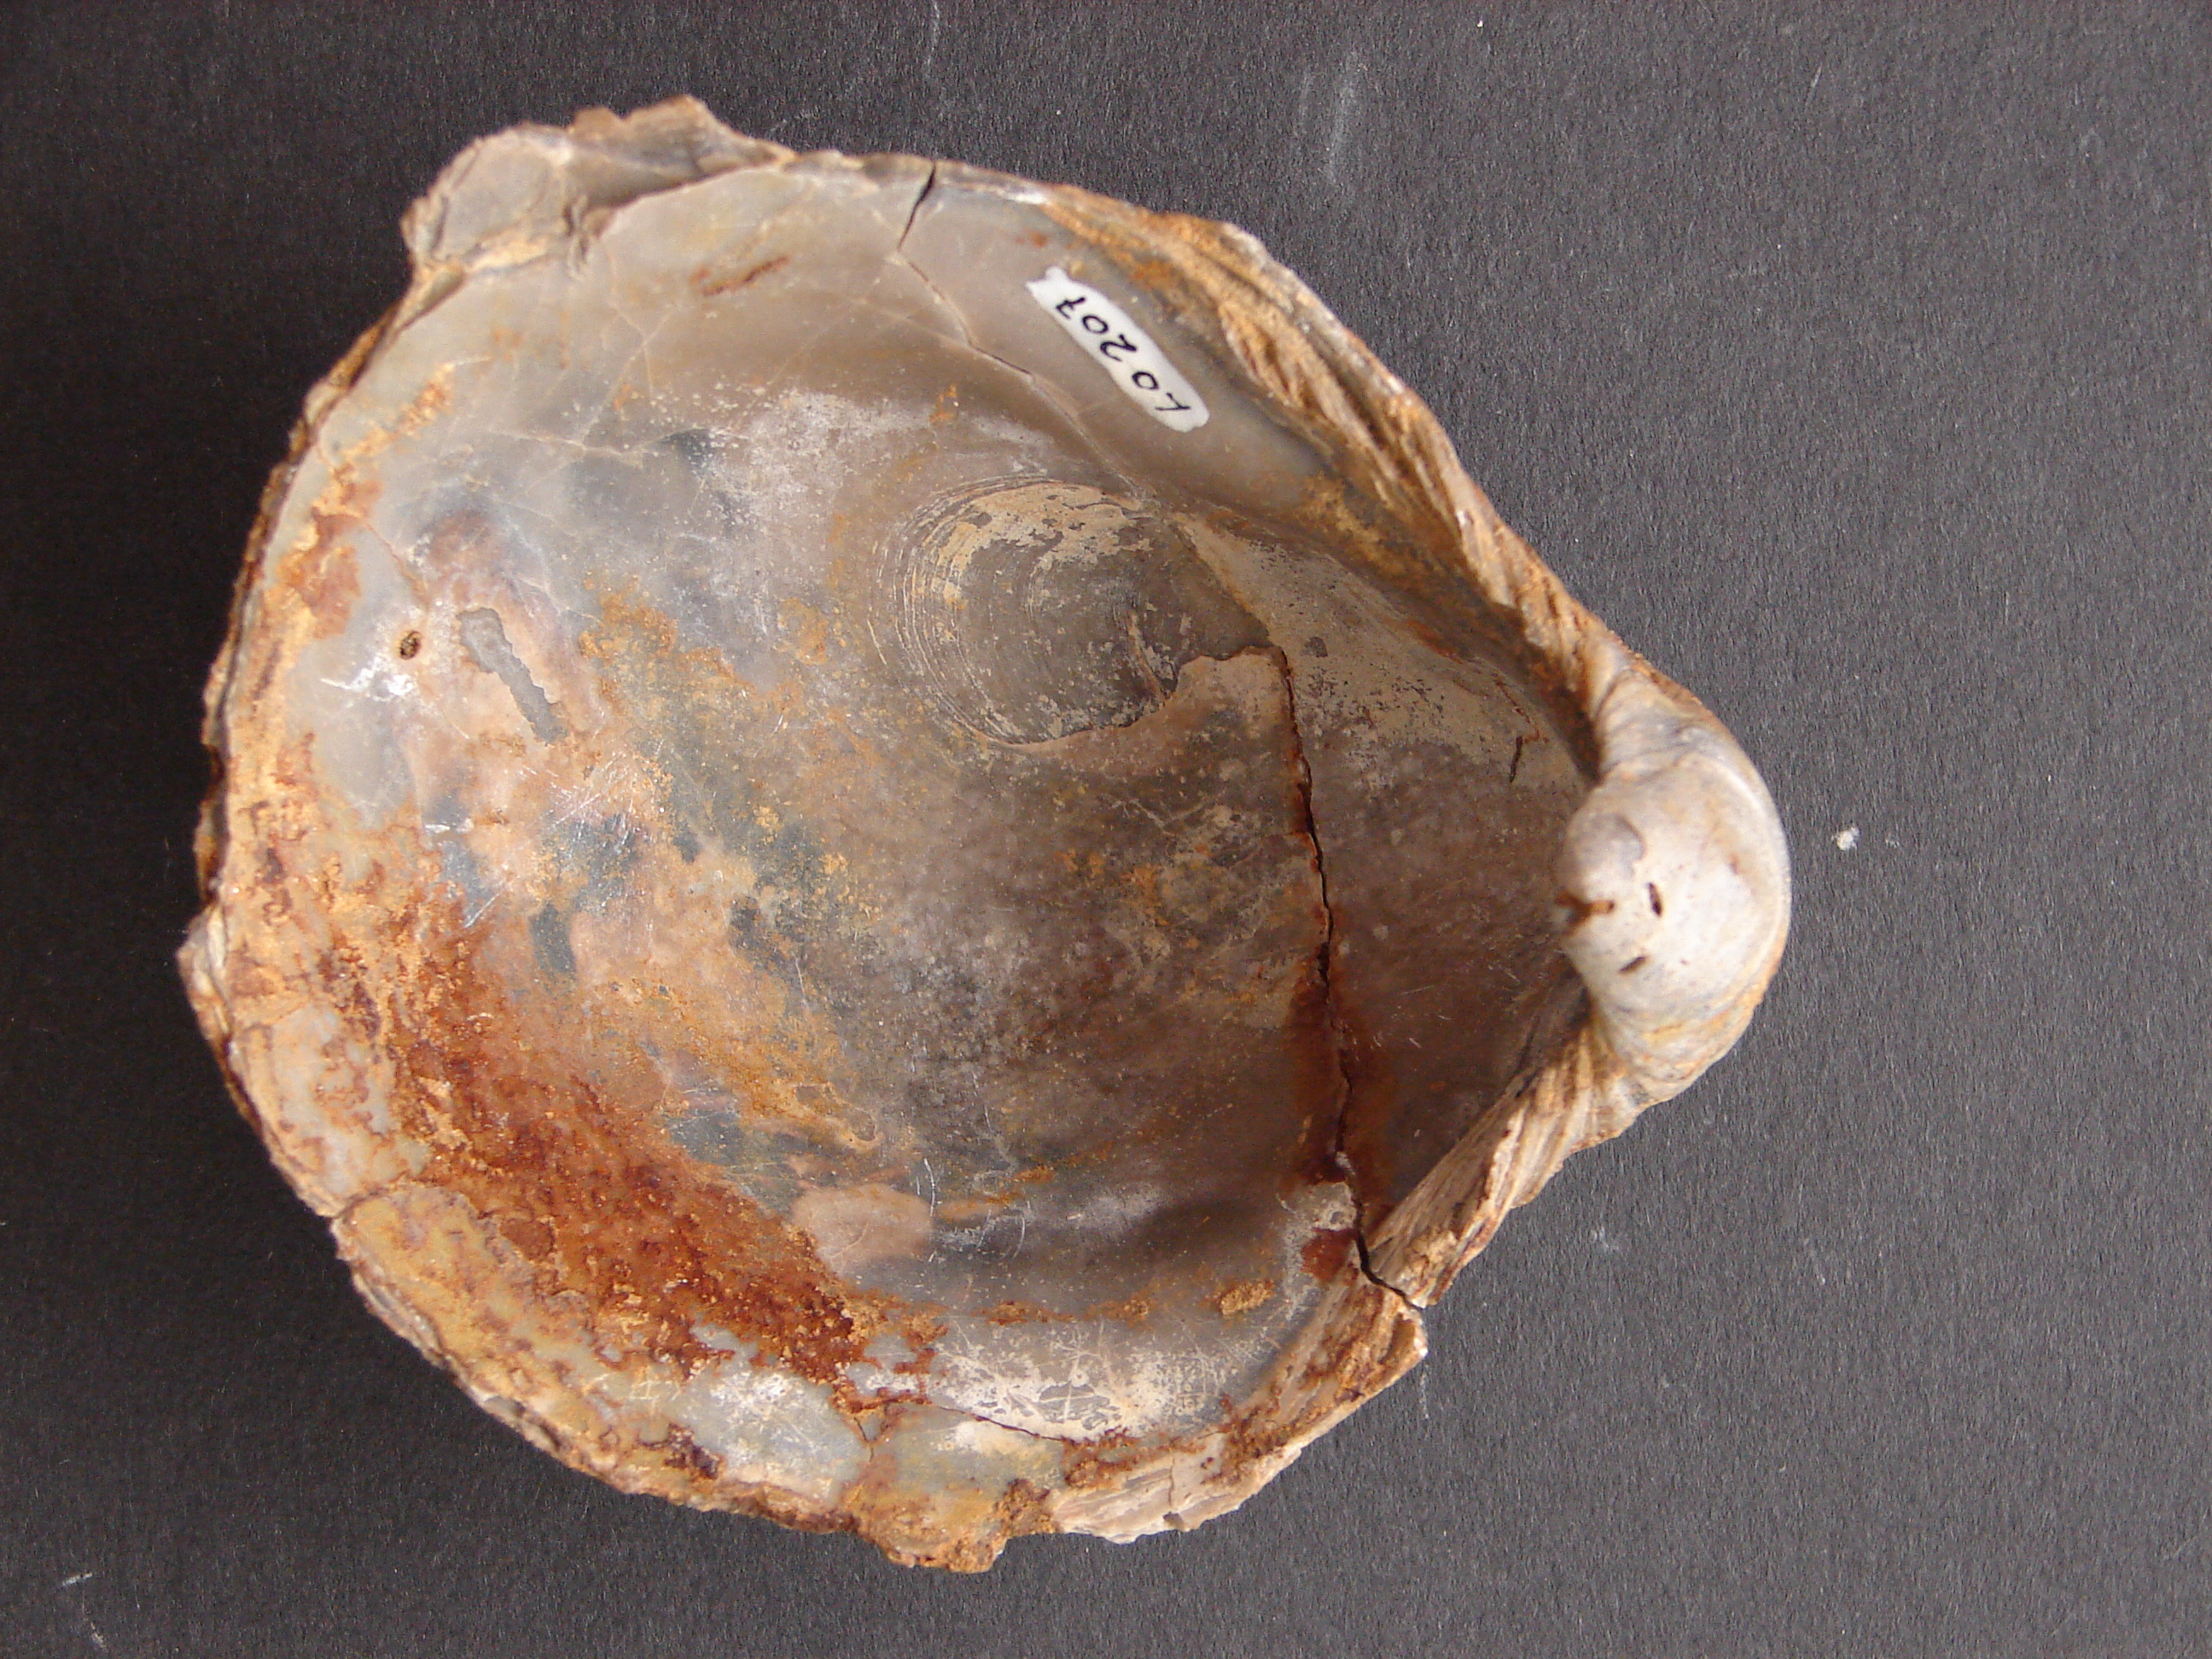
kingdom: Animalia
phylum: Mollusca
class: Bivalvia
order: Ostreida
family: Gryphaeidae
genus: Gryphaea
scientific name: Gryphaea
